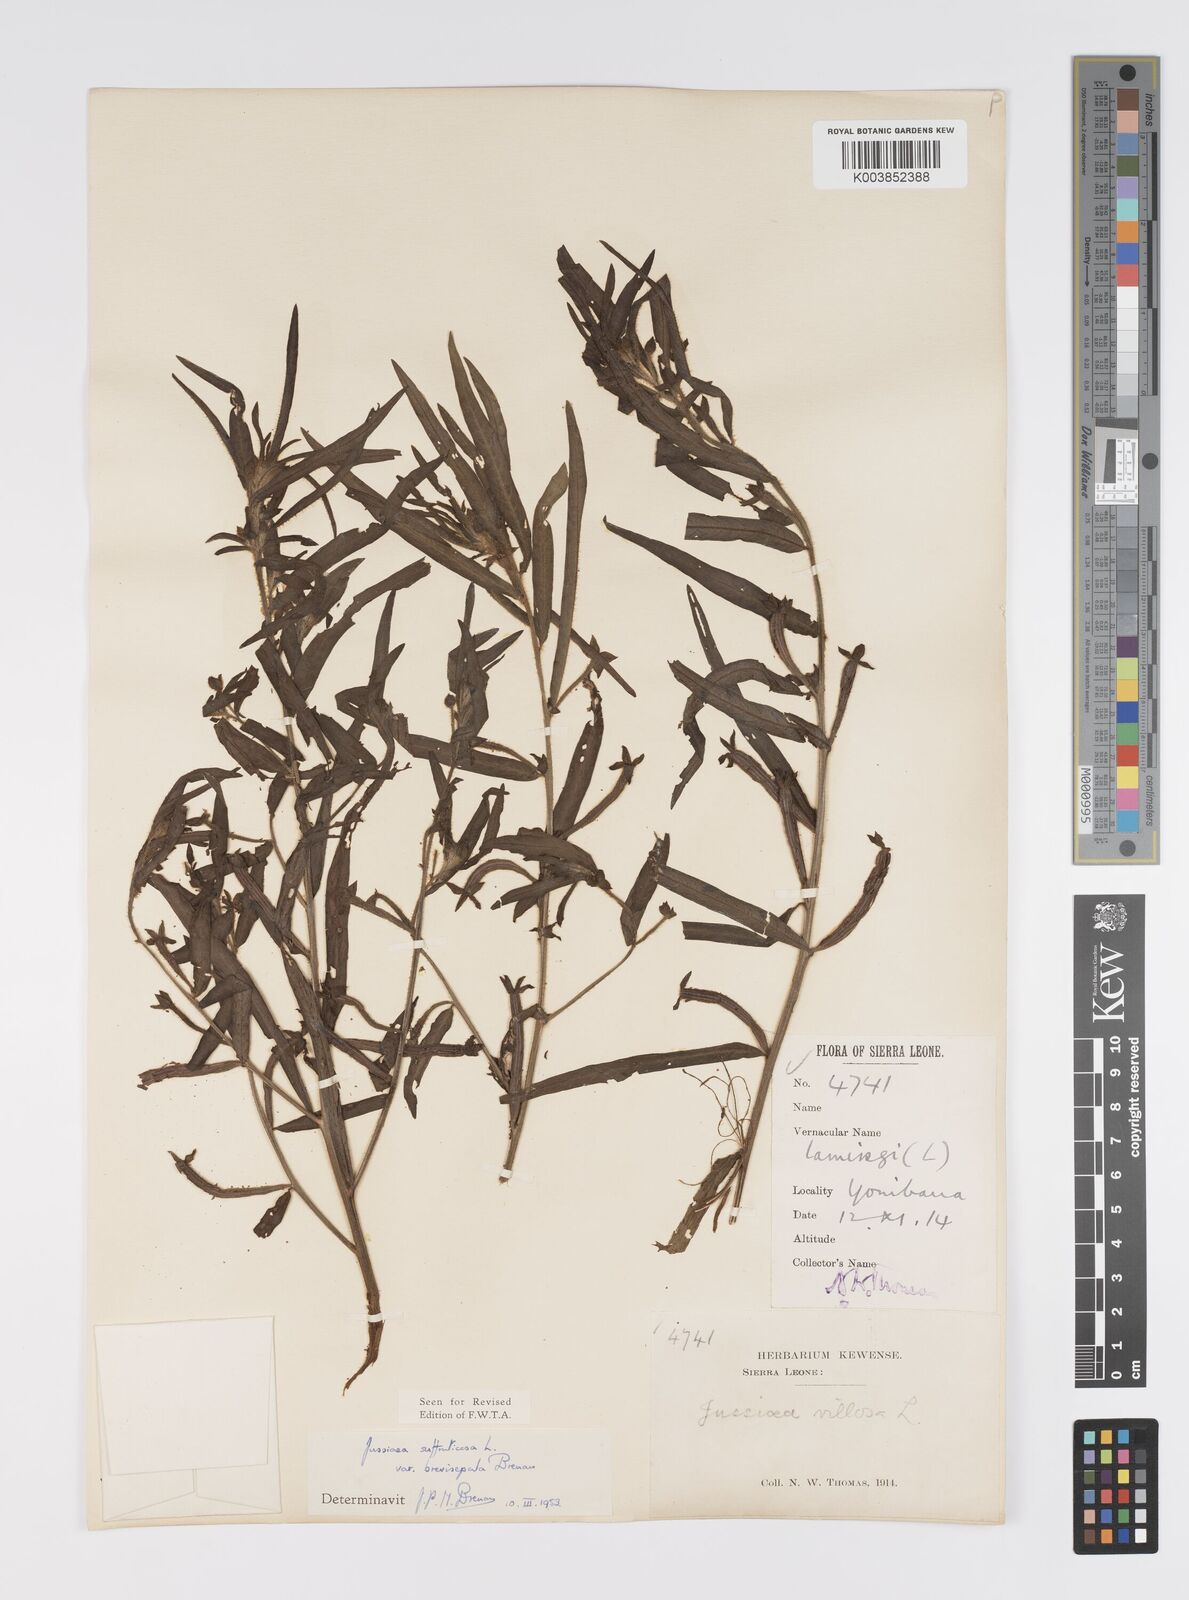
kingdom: Plantae
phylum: Tracheophyta
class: Magnoliopsida
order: Myrtales
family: Onagraceae
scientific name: Onagraceae
